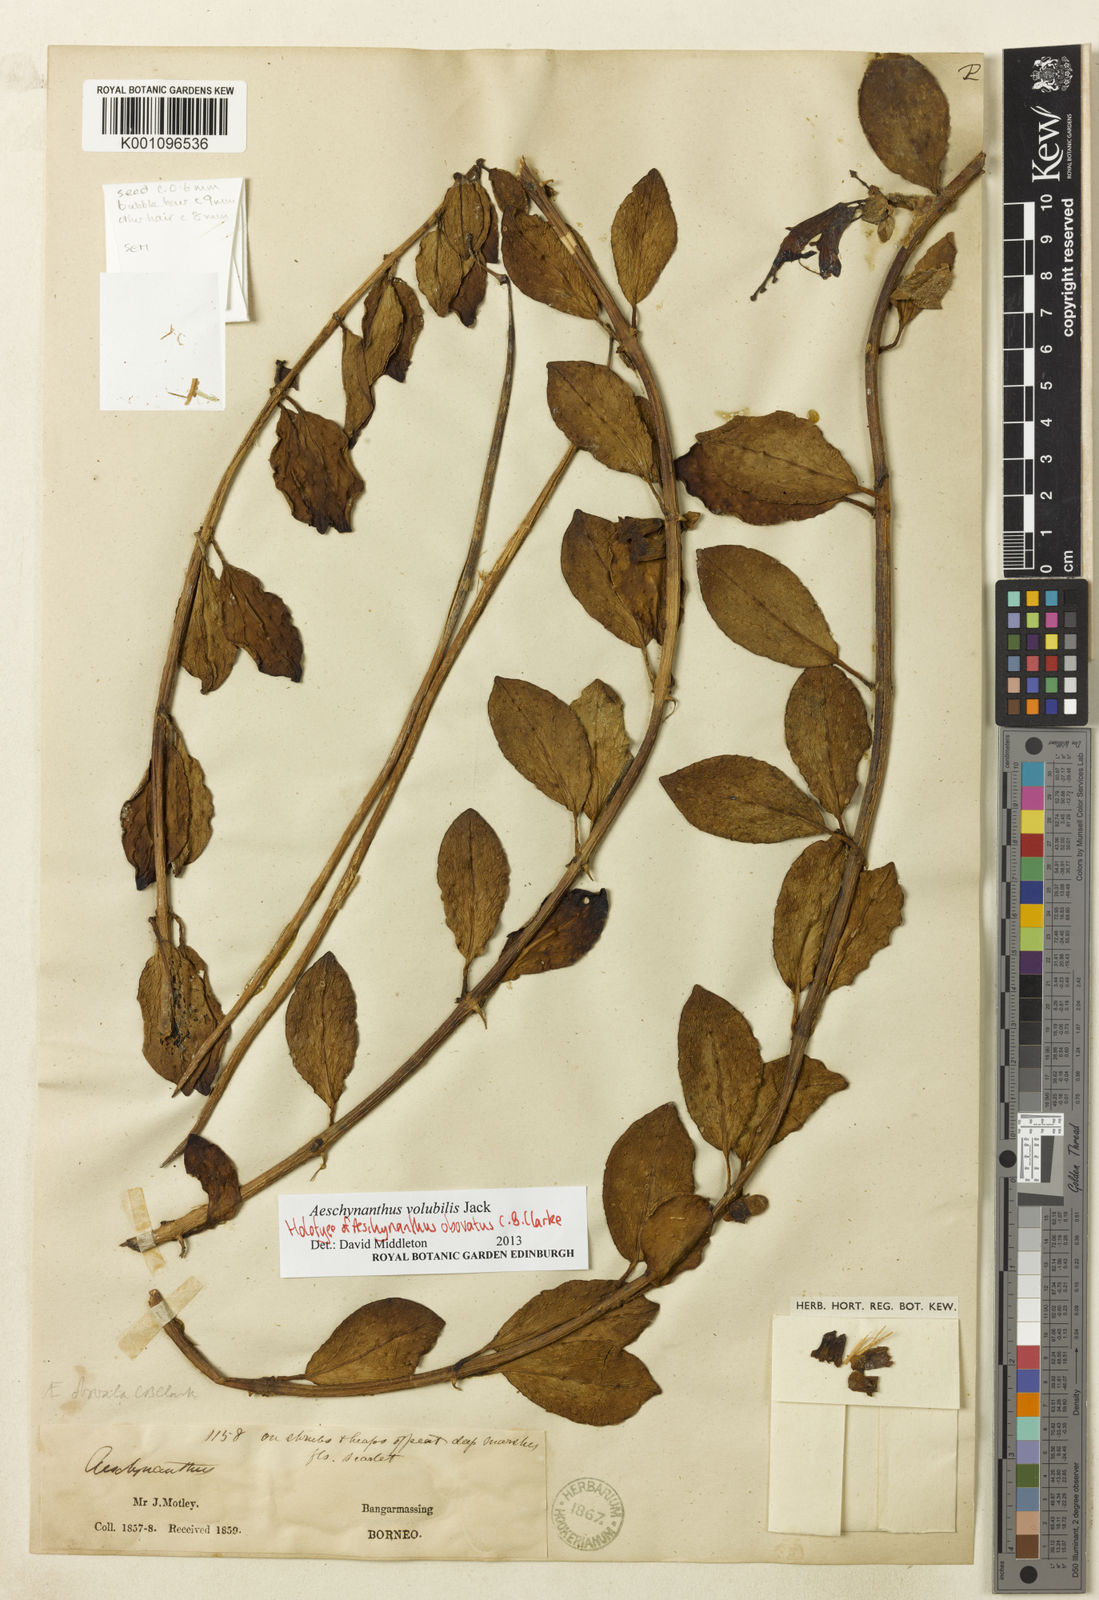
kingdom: Plantae
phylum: Tracheophyta
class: Magnoliopsida
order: Lamiales
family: Gesneriaceae
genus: Aeschynanthus
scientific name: Aeschynanthus volubilis
